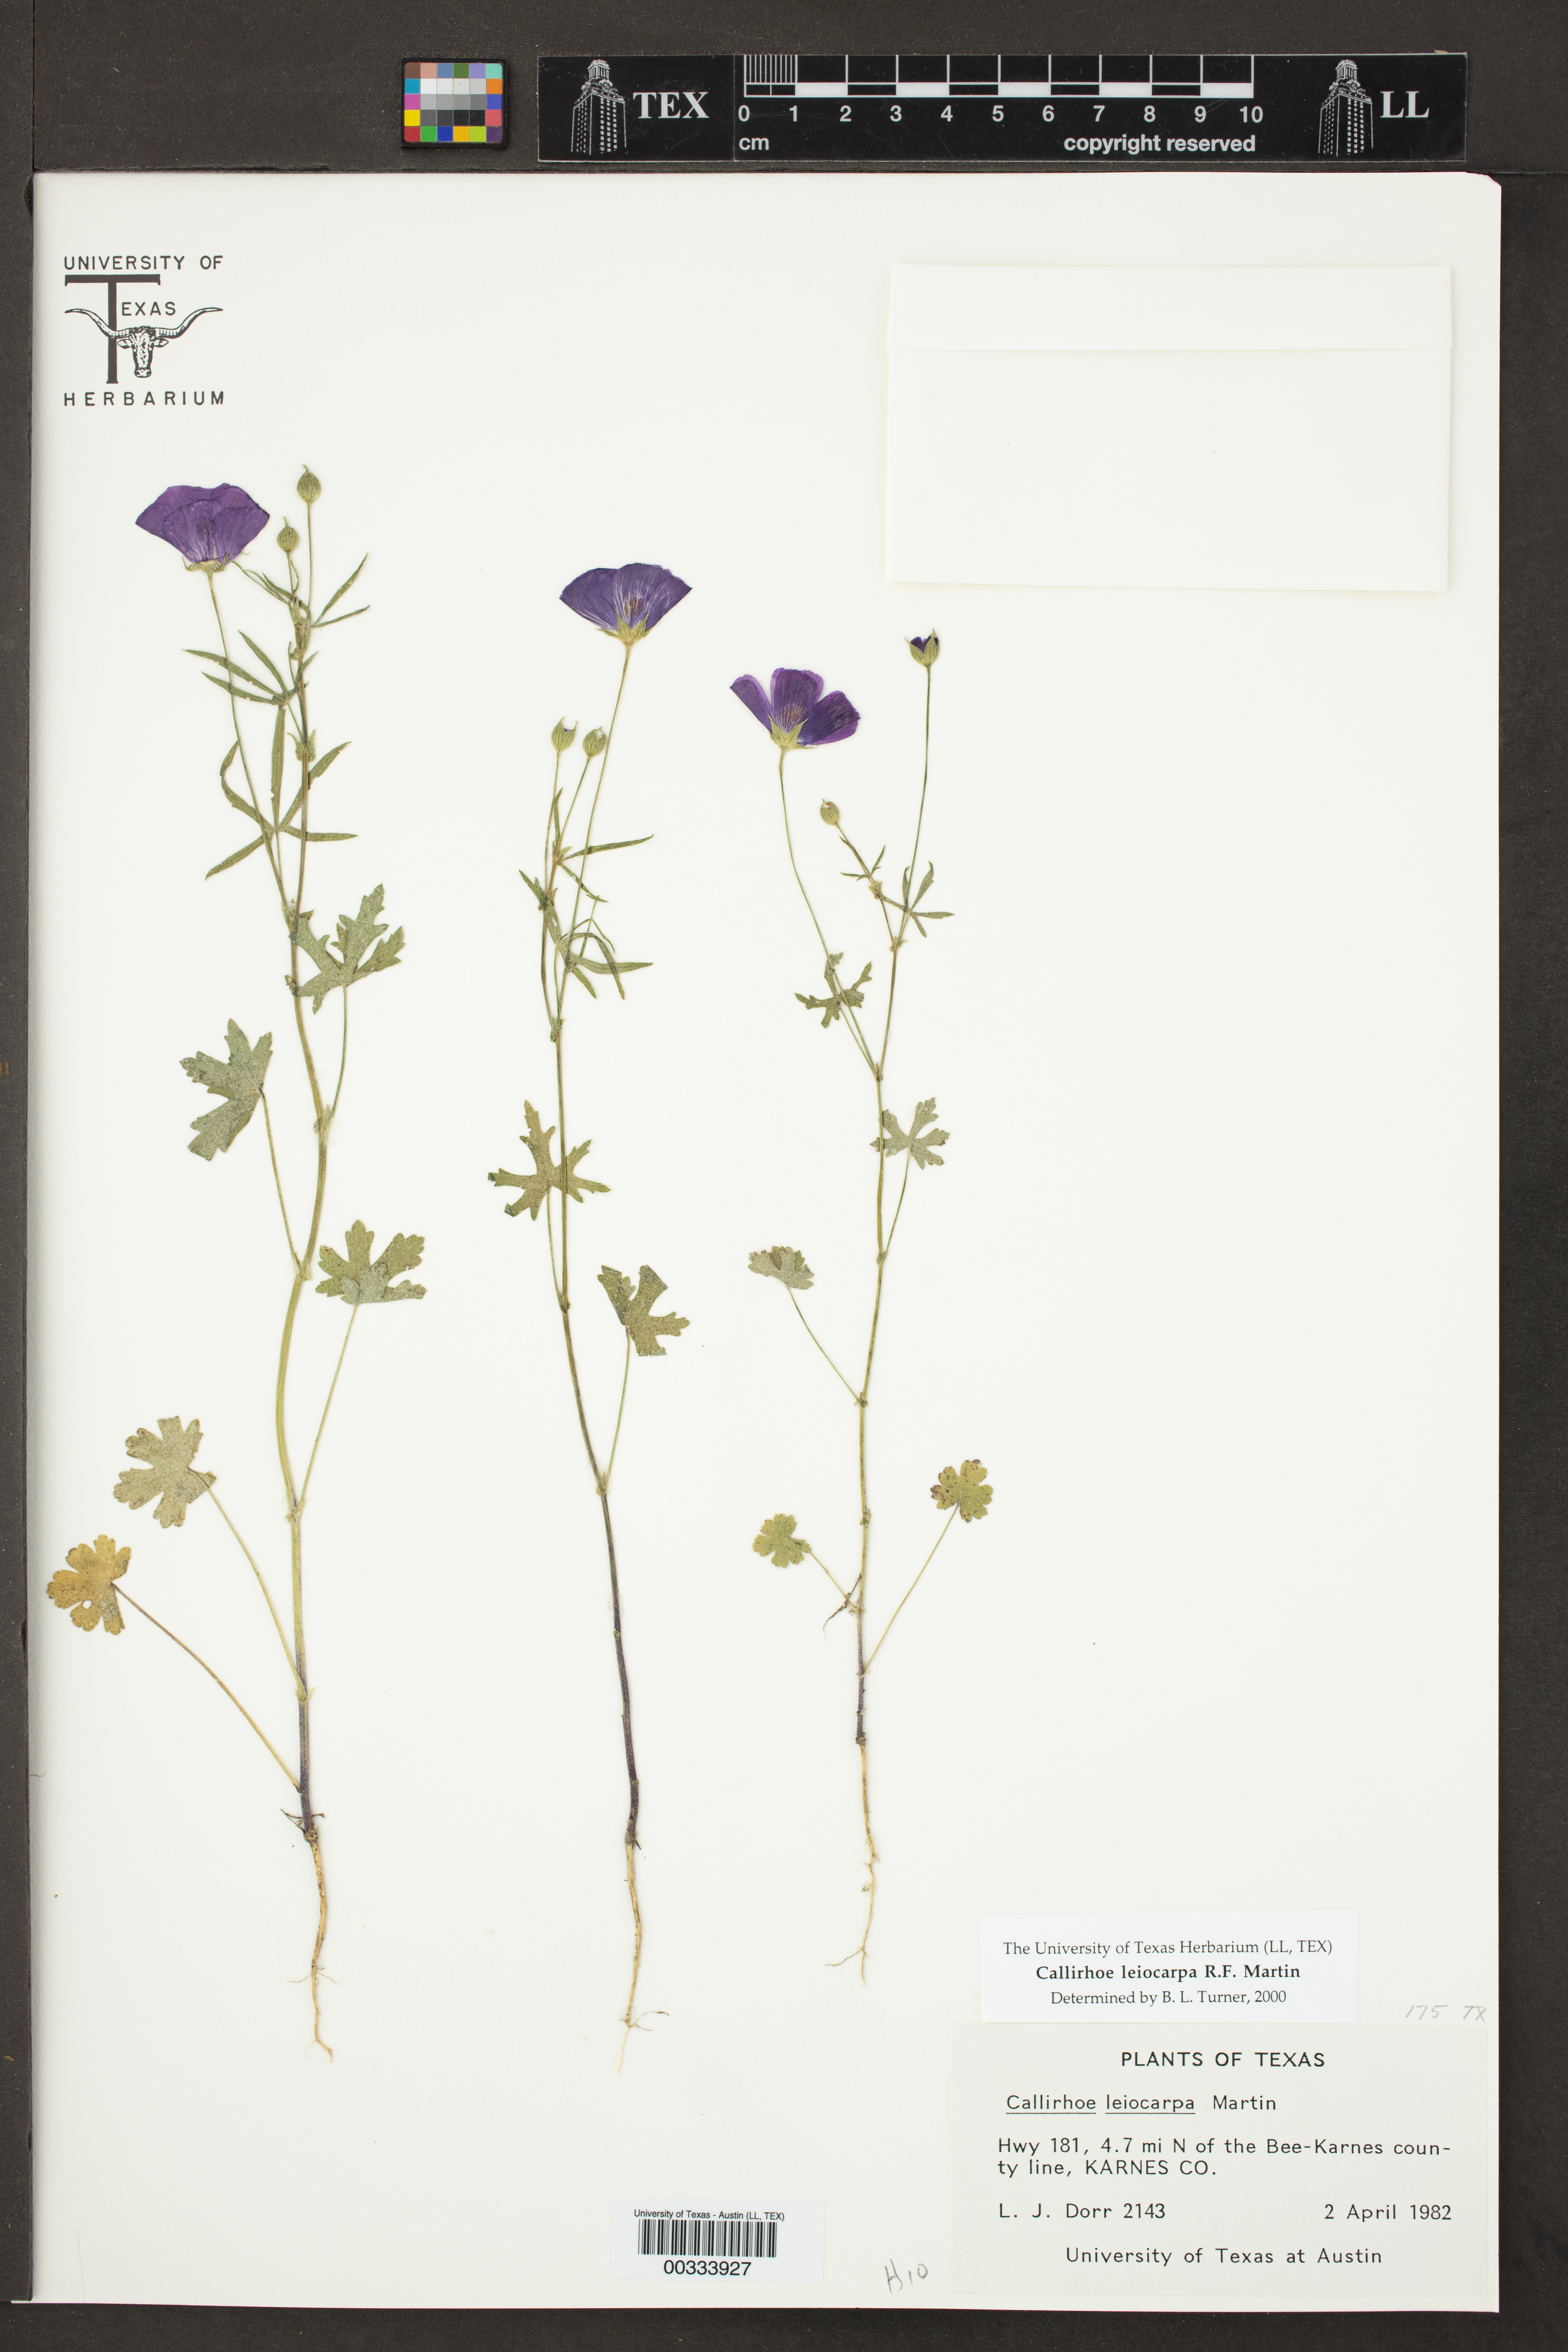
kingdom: Plantae
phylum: Tracheophyta
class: Magnoliopsida
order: Malvales
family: Malvaceae
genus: Callirhoe
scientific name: Callirhoe leiocarpa
